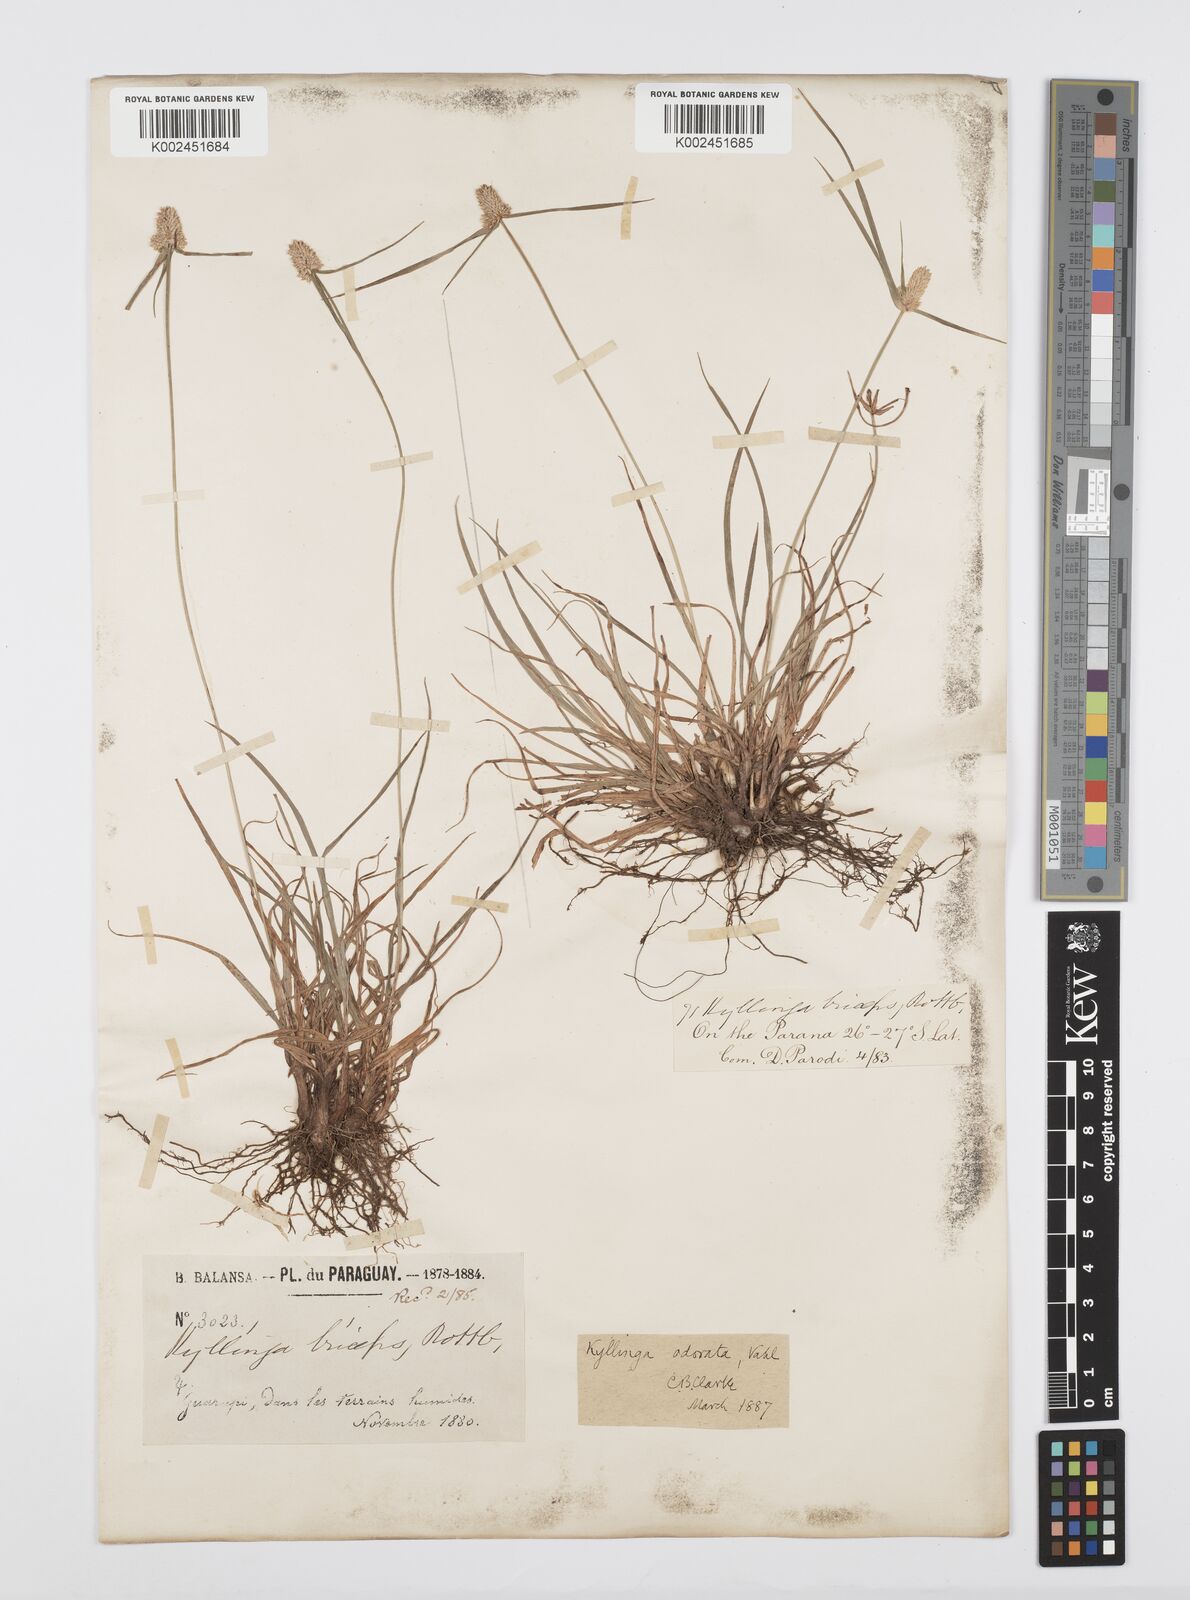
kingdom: Plantae
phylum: Tracheophyta
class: Liliopsida
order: Poales
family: Cyperaceae
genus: Cyperus
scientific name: Cyperus
